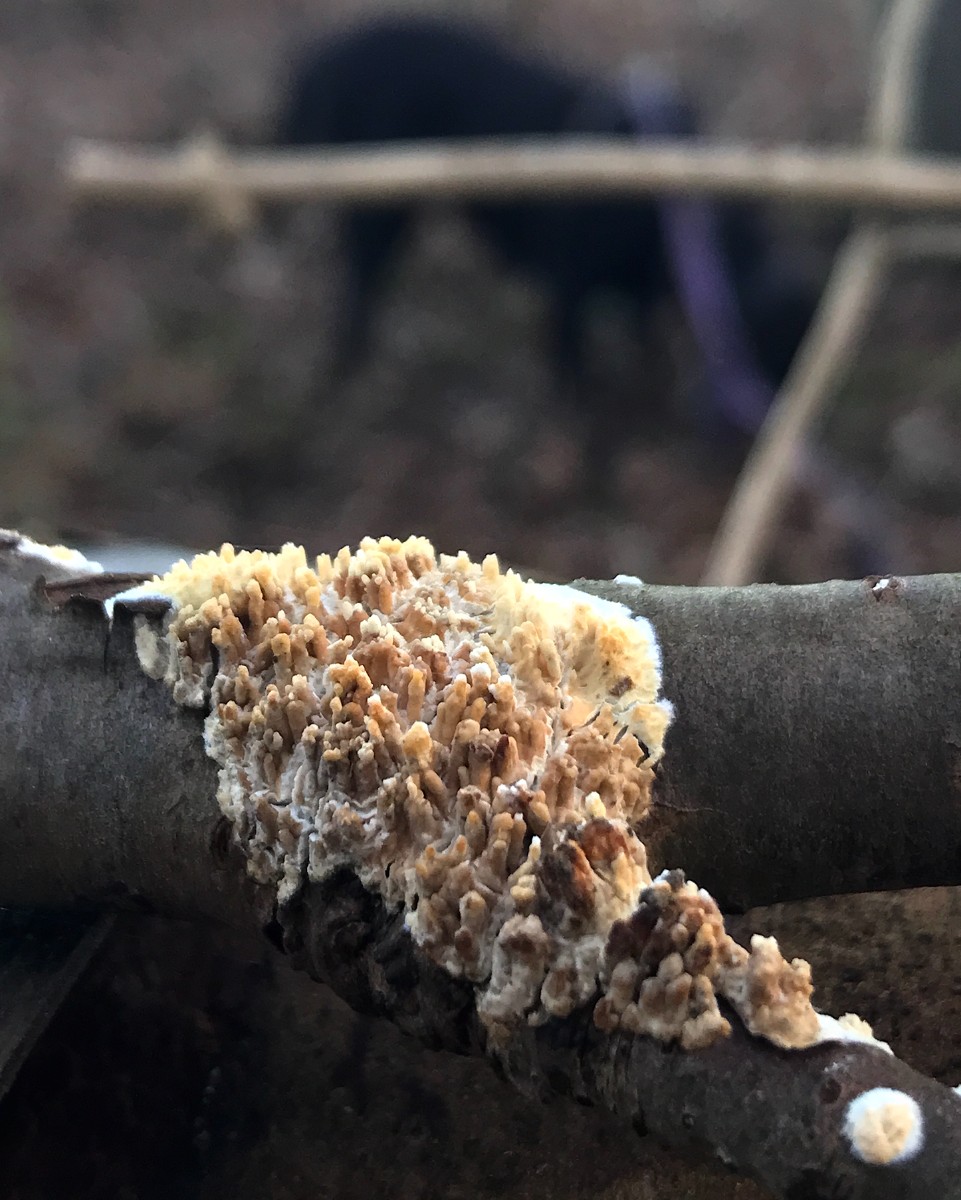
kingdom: Fungi
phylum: Basidiomycota
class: Agaricomycetes
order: Hymenochaetales
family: Schizoporaceae
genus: Xylodon
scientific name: Xylodon radula
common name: grovtandet kalkskind
